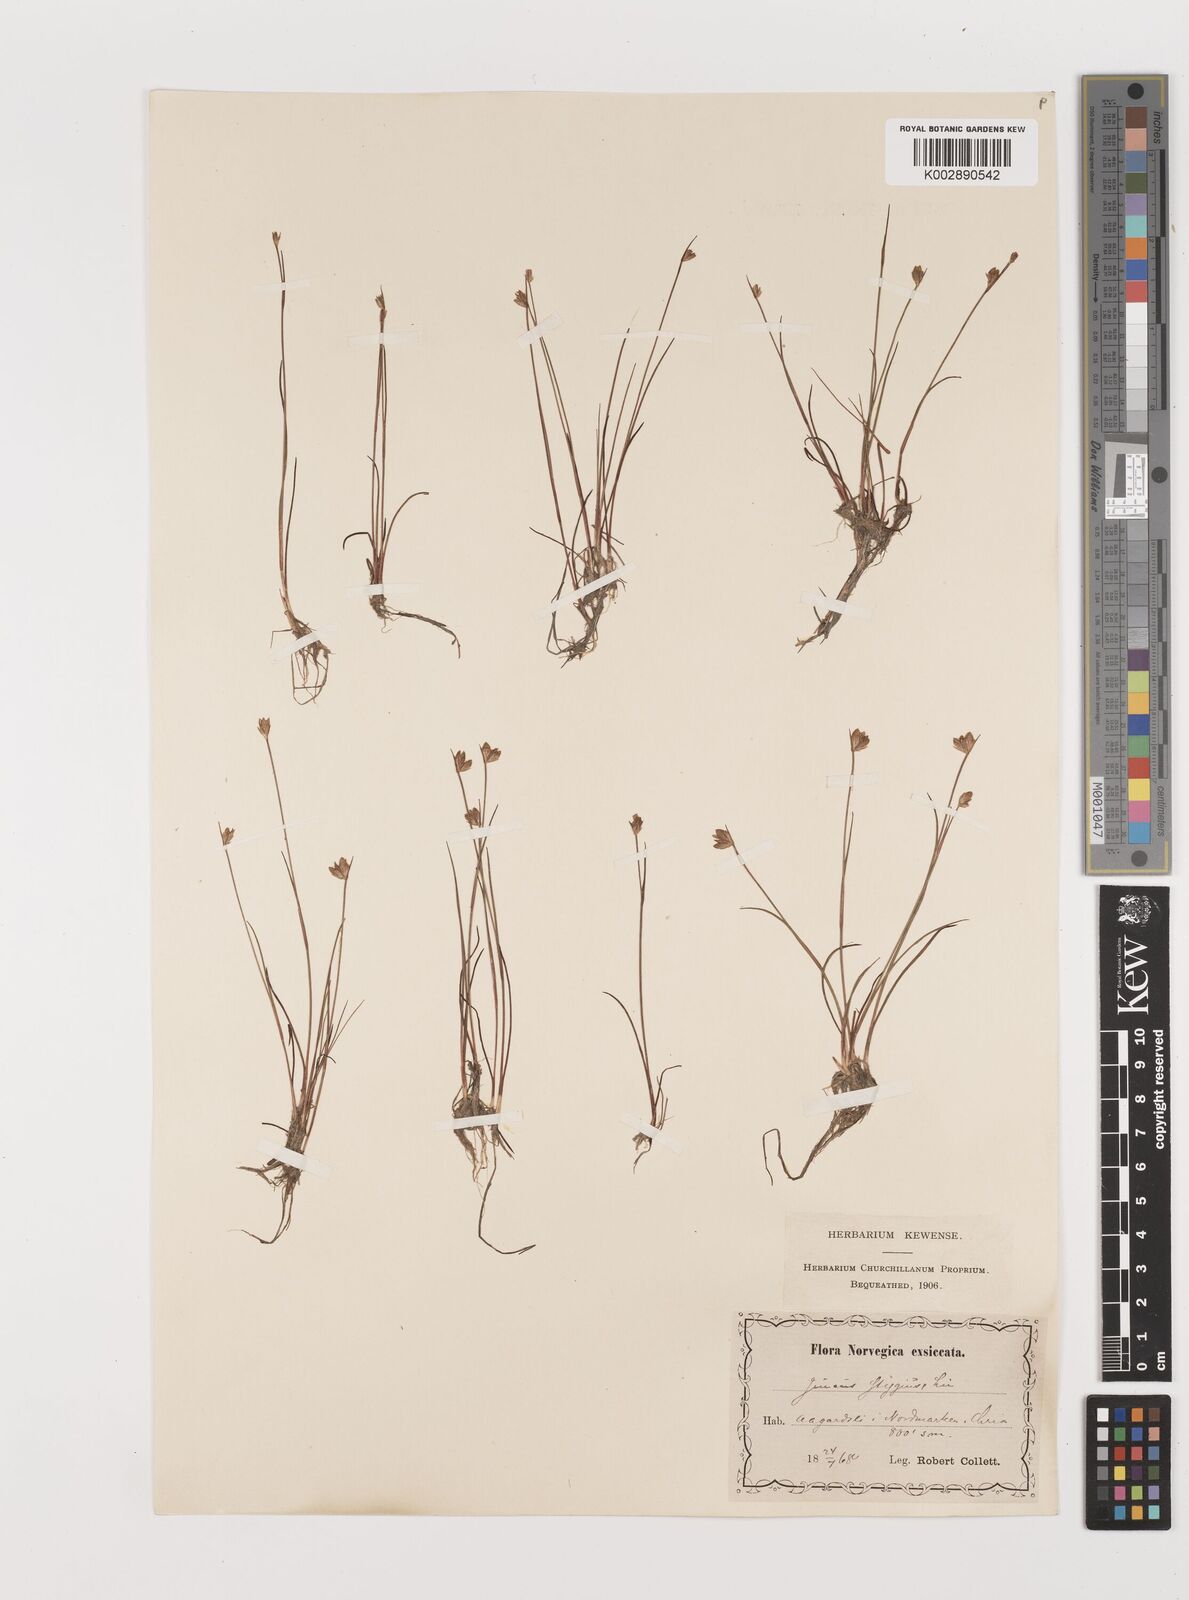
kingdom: Plantae
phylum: Tracheophyta
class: Liliopsida
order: Poales
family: Juncaceae
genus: Juncus
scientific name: Juncus stygius
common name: Bog rush
